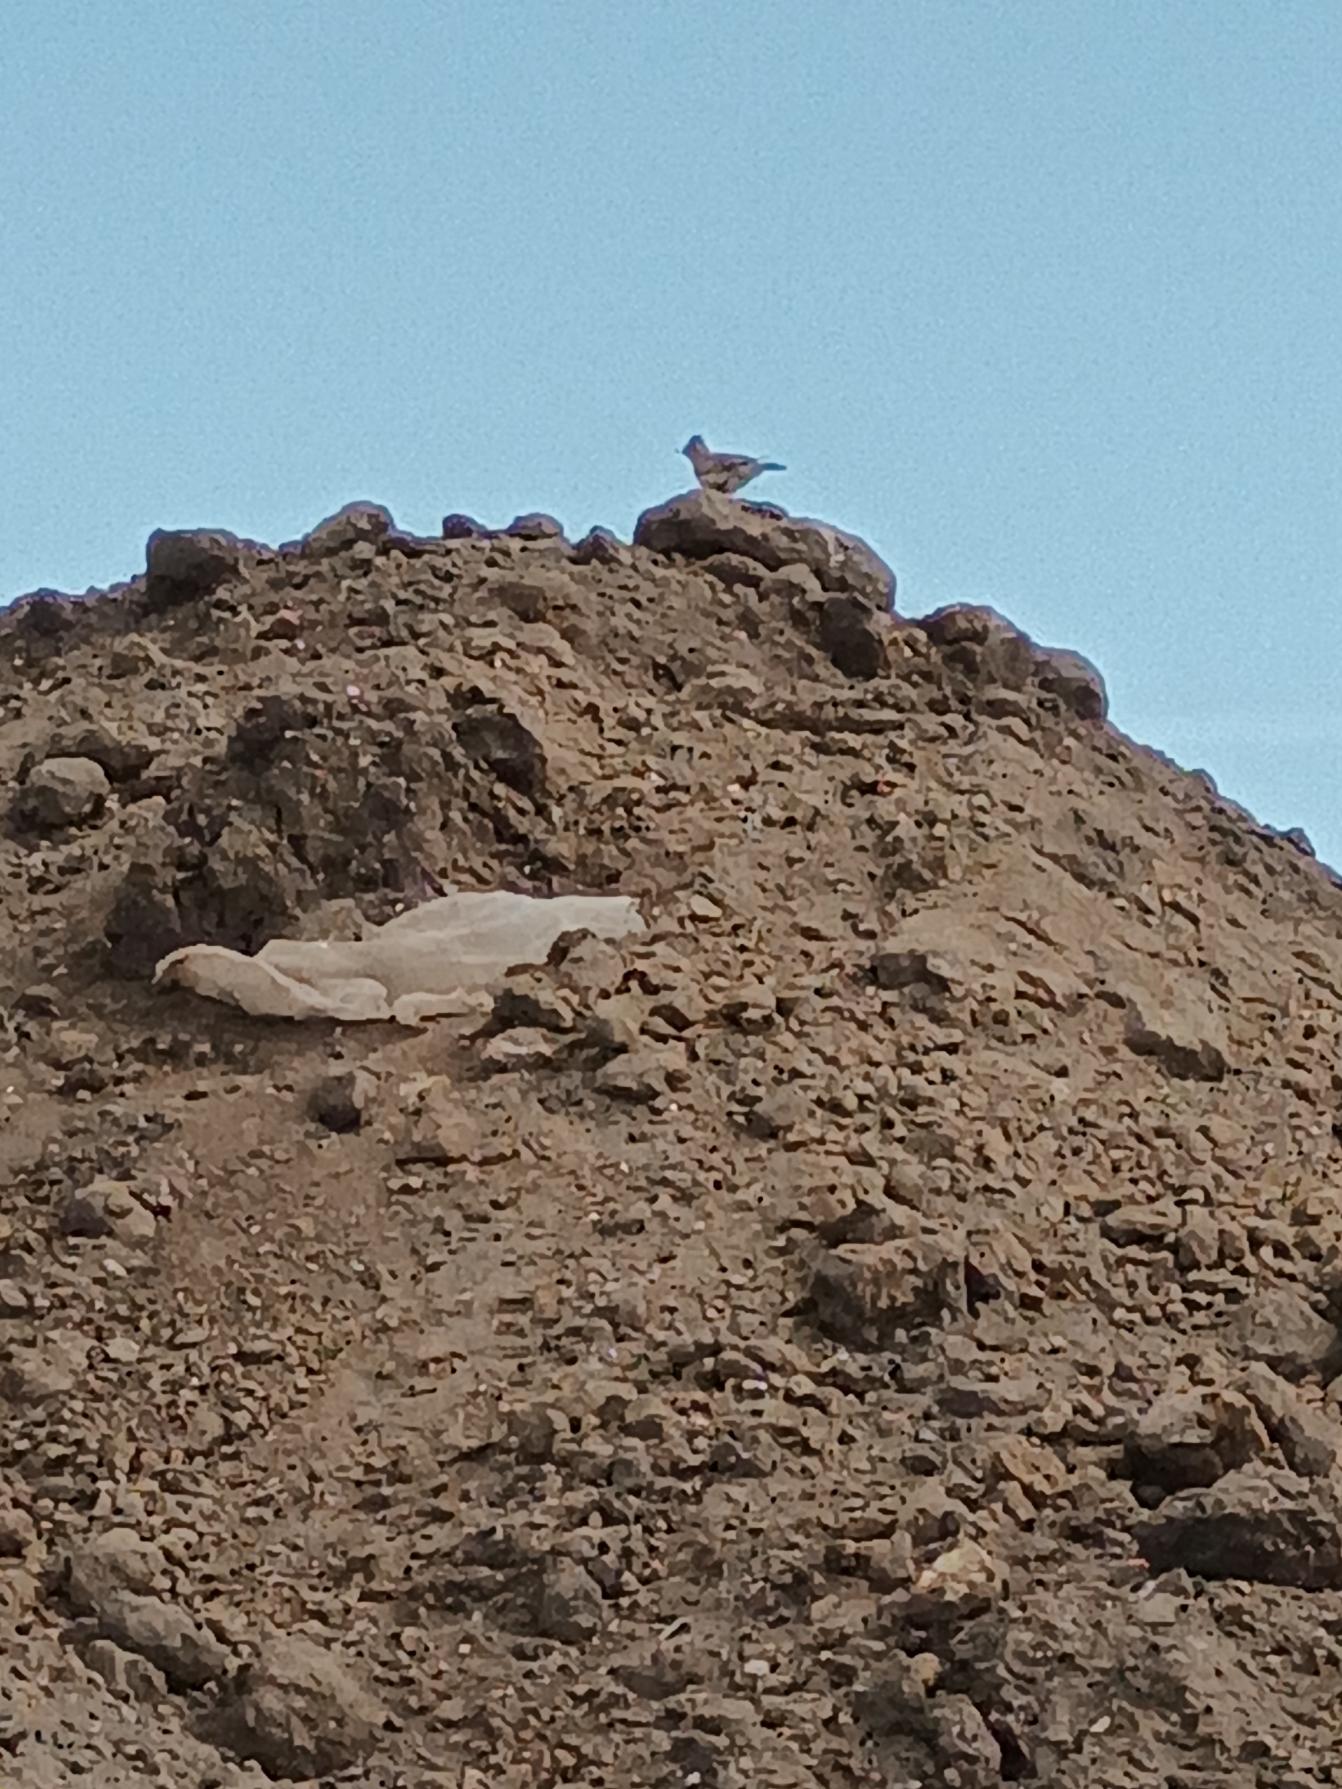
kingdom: Animalia
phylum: Chordata
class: Aves
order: Passeriformes
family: Alaudidae
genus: Alauda
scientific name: Alauda arvensis
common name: Sanglærke
